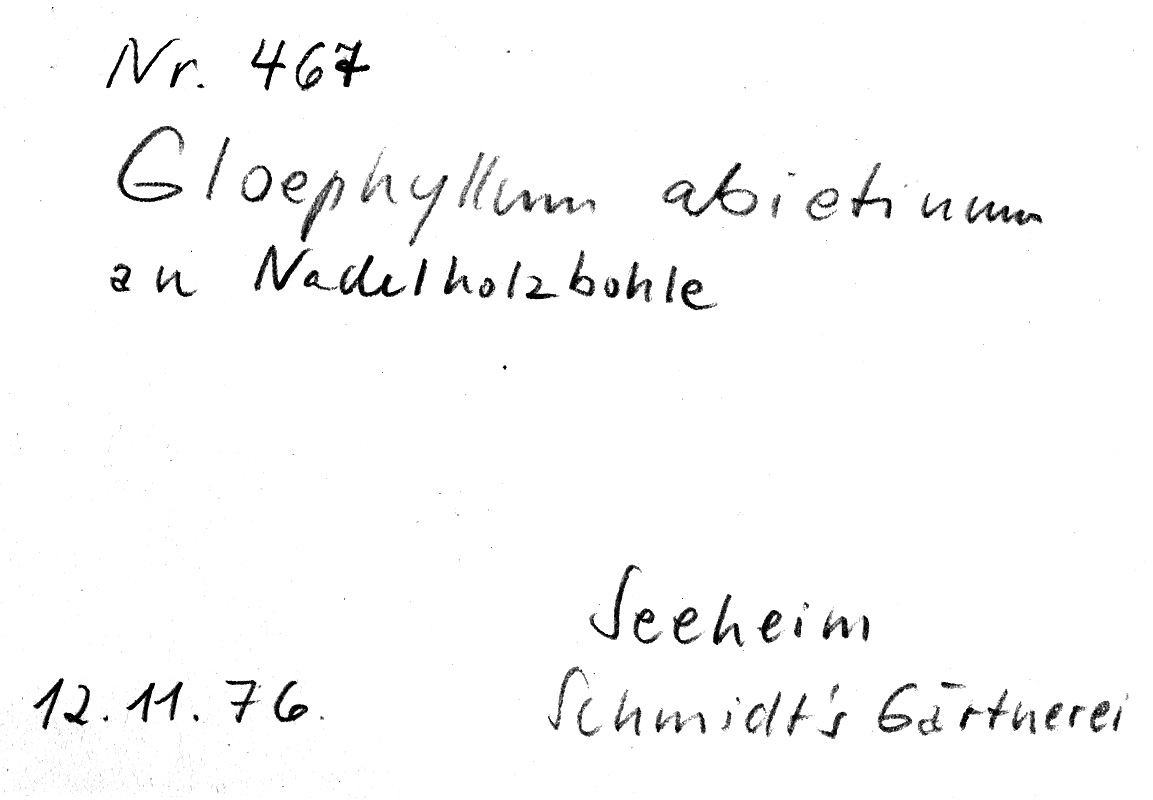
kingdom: Fungi
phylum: Basidiomycota
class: Agaricomycetes
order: Gloeophyllales
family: Gloeophyllaceae
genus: Gloeophyllum
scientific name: Gloeophyllum abietinum
